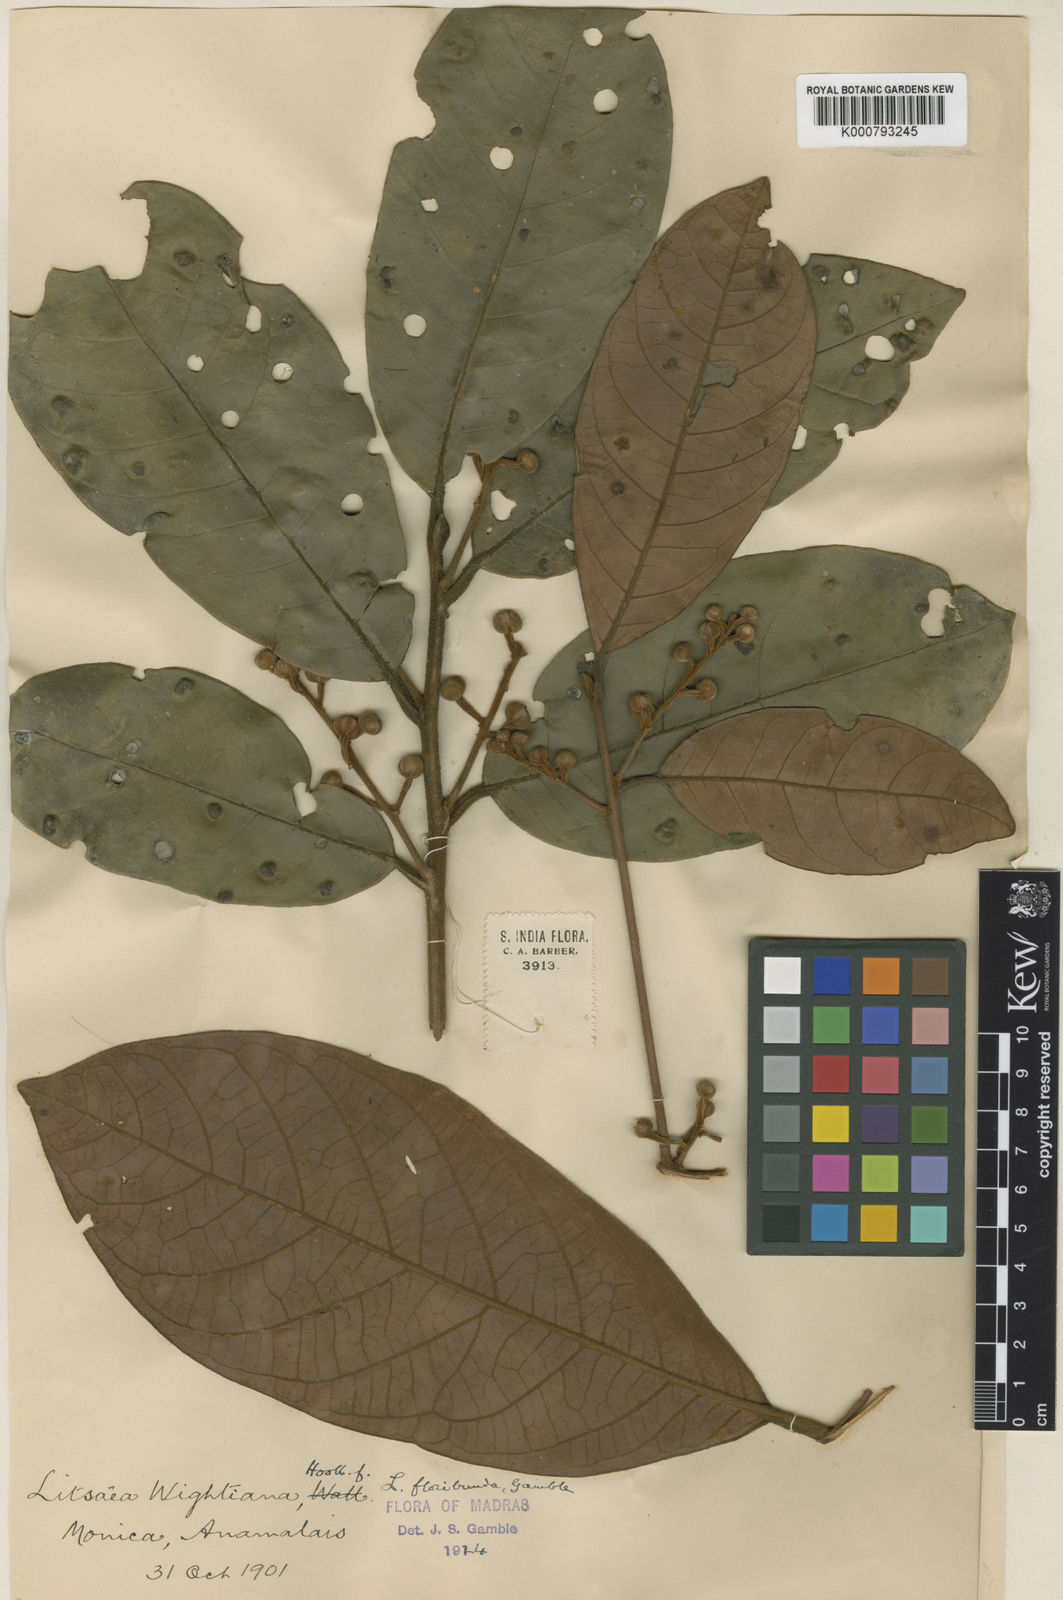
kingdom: Plantae
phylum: Tracheophyta
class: Magnoliopsida
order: Laurales
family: Lauraceae
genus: Litsea
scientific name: Litsea floribunda
